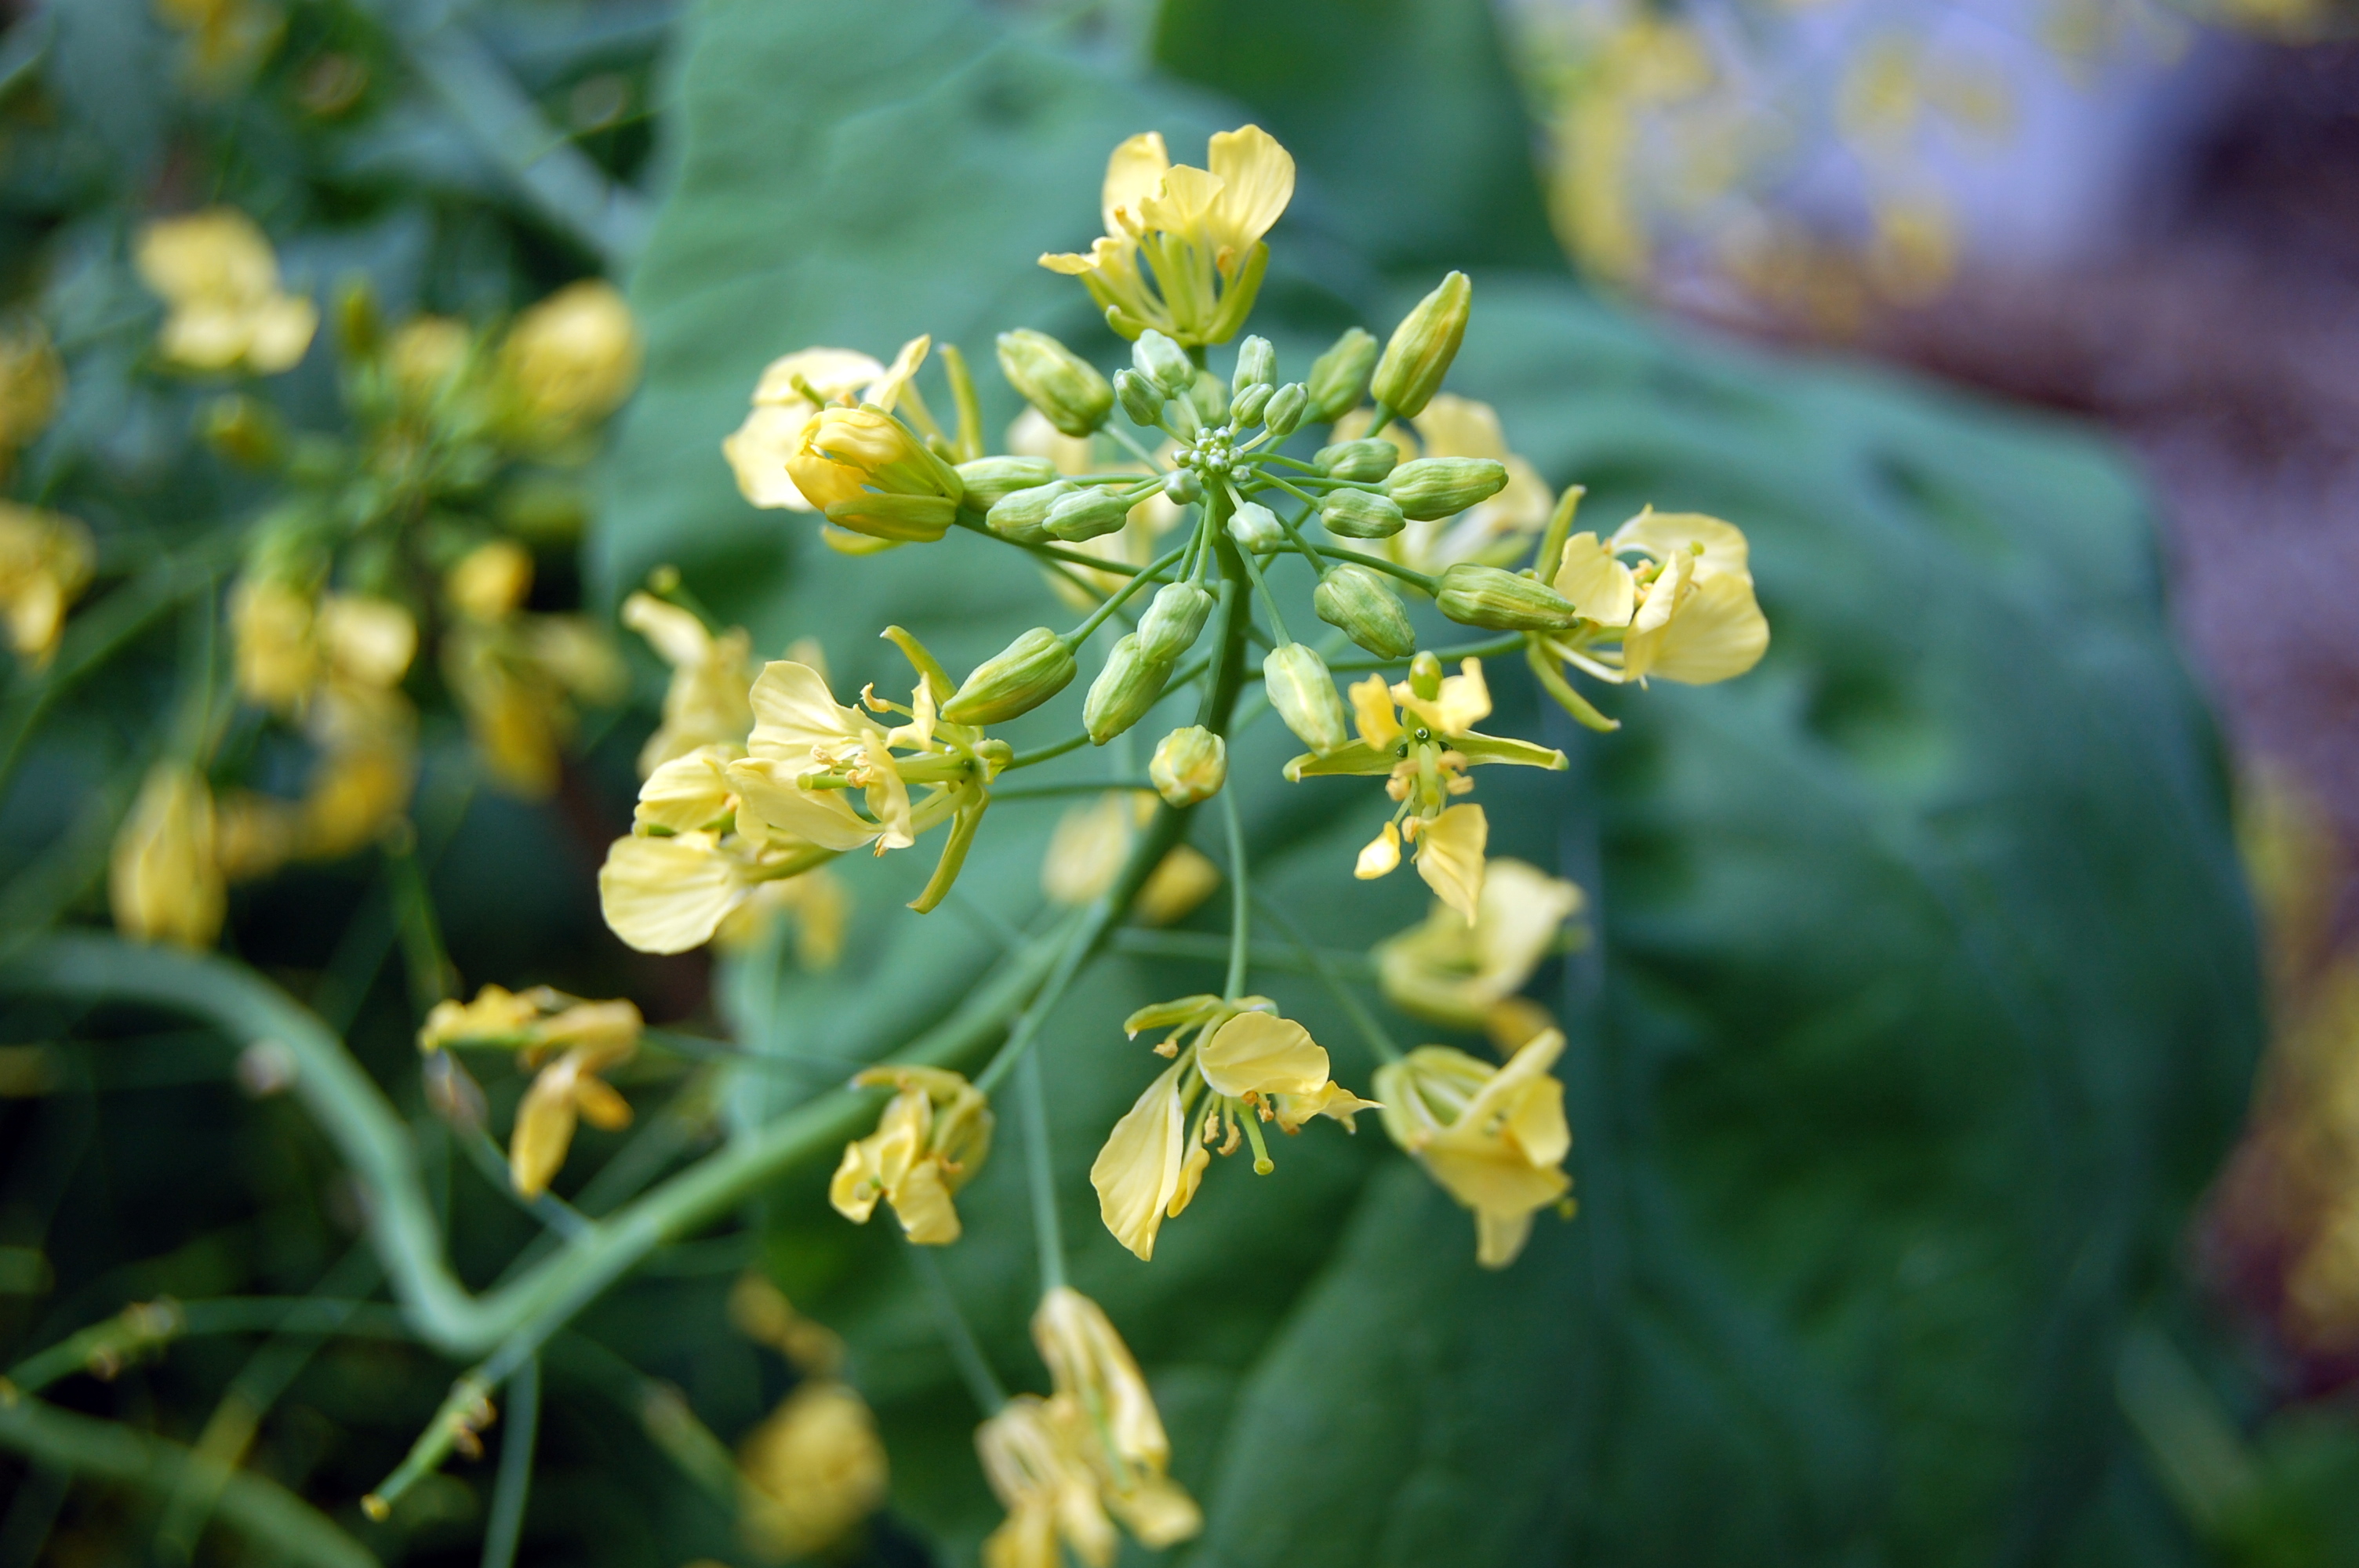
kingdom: Plantae
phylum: Tracheophyta
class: Magnoliopsida
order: Brassicales
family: Brassicaceae
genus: Brassica
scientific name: Brassica napus
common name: Rape
